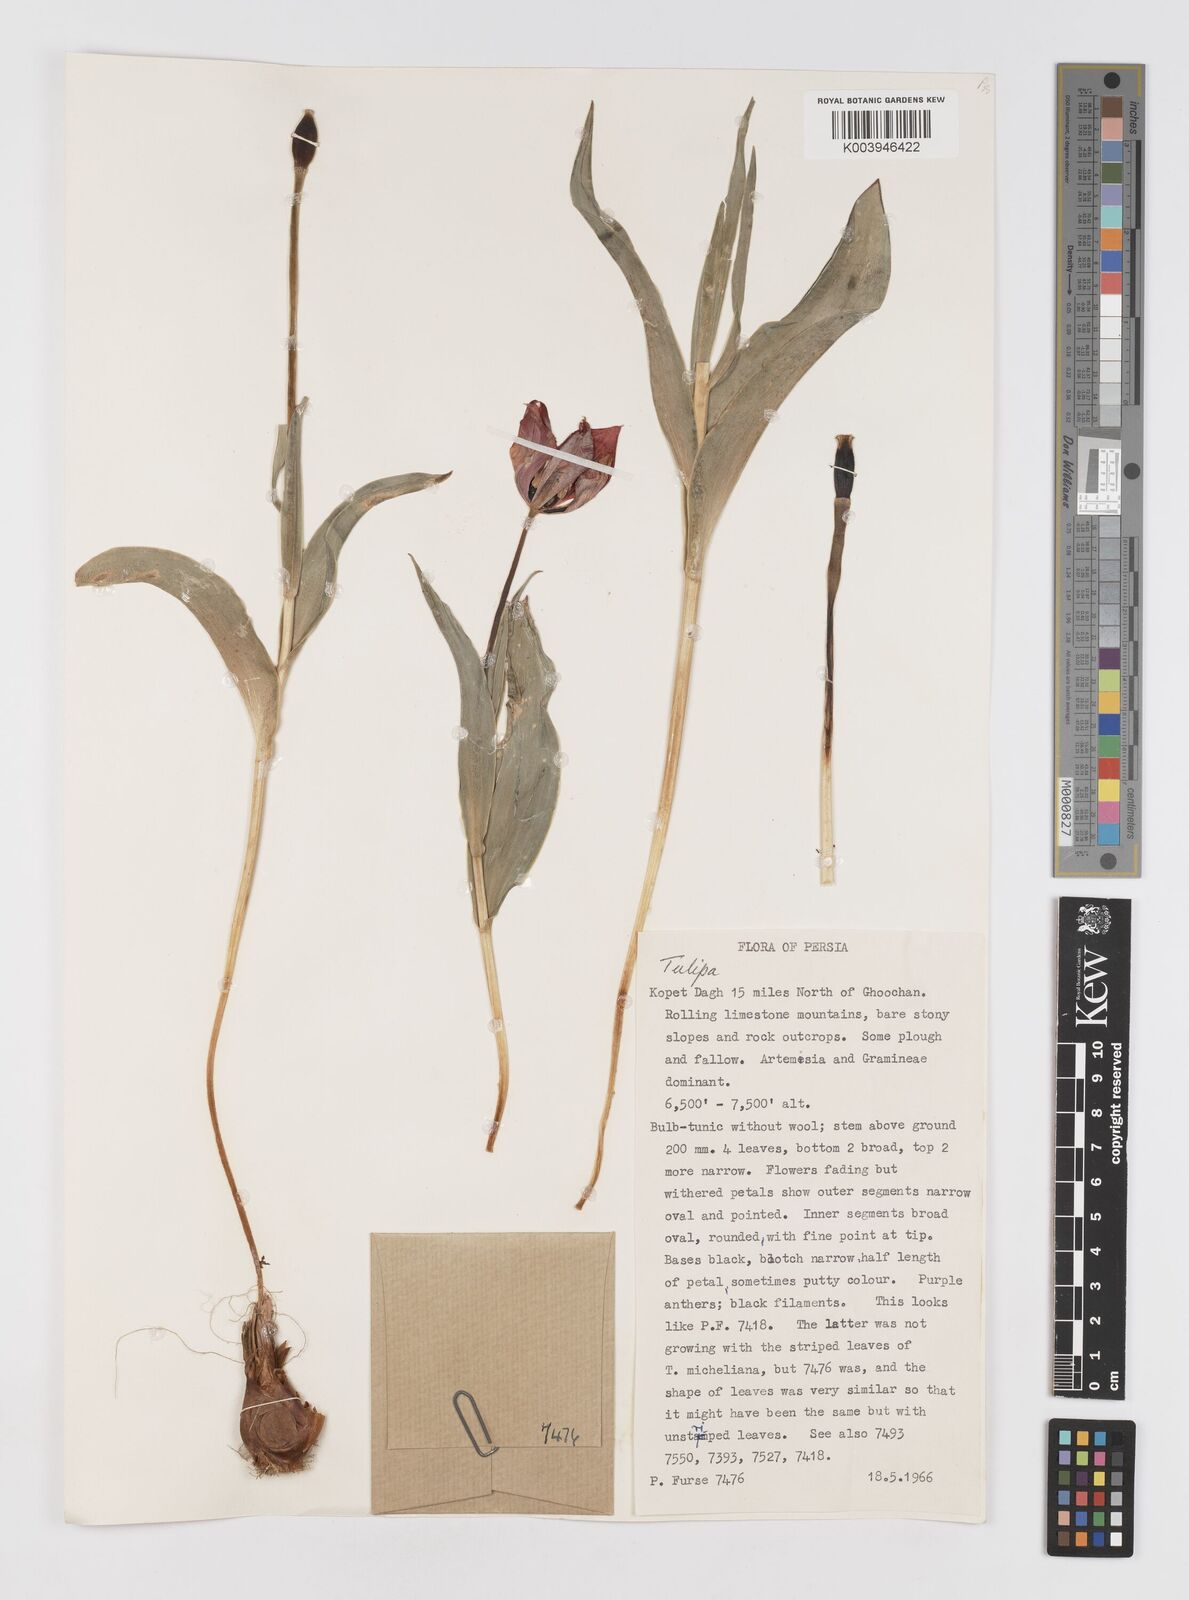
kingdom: Plantae
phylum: Tracheophyta
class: Liliopsida
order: Liliales
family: Liliaceae
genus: Tulipa
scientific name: Tulipa
